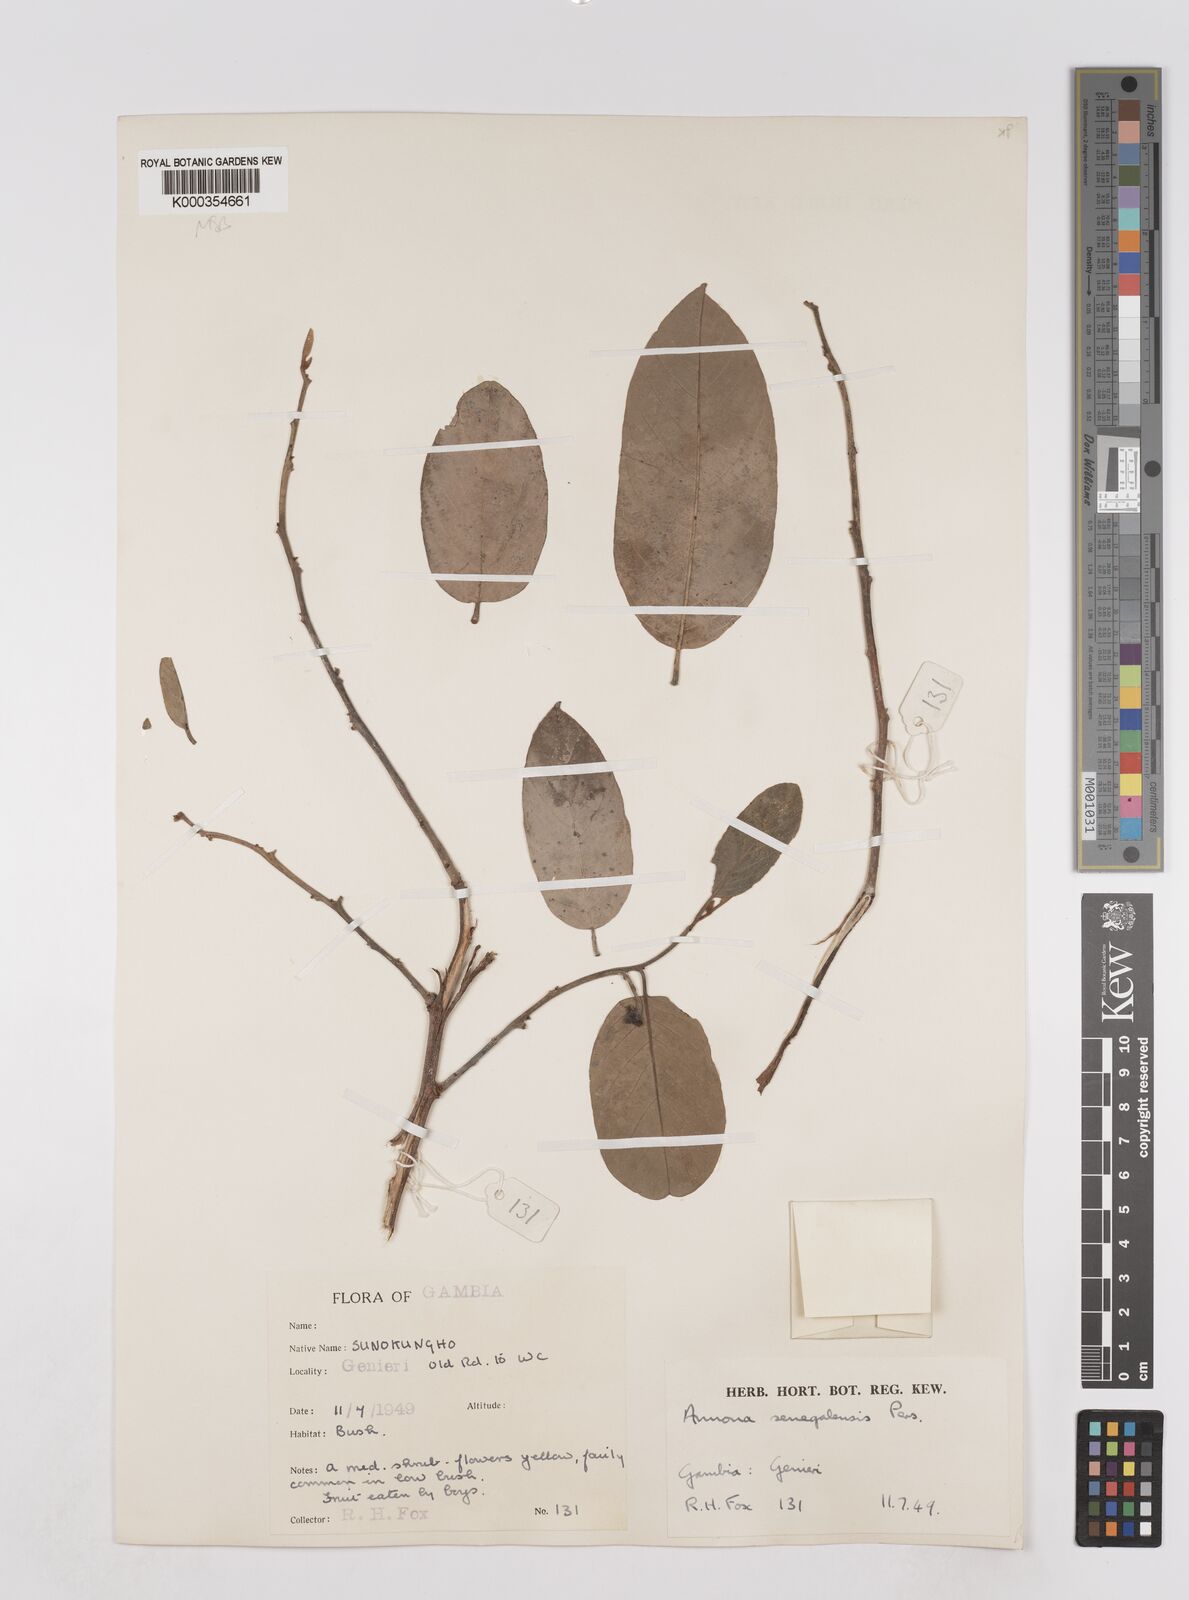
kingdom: Plantae
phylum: Tracheophyta
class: Magnoliopsida
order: Magnoliales
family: Annonaceae
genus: Annona
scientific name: Annona senegalensis
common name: Wild custard-apple
